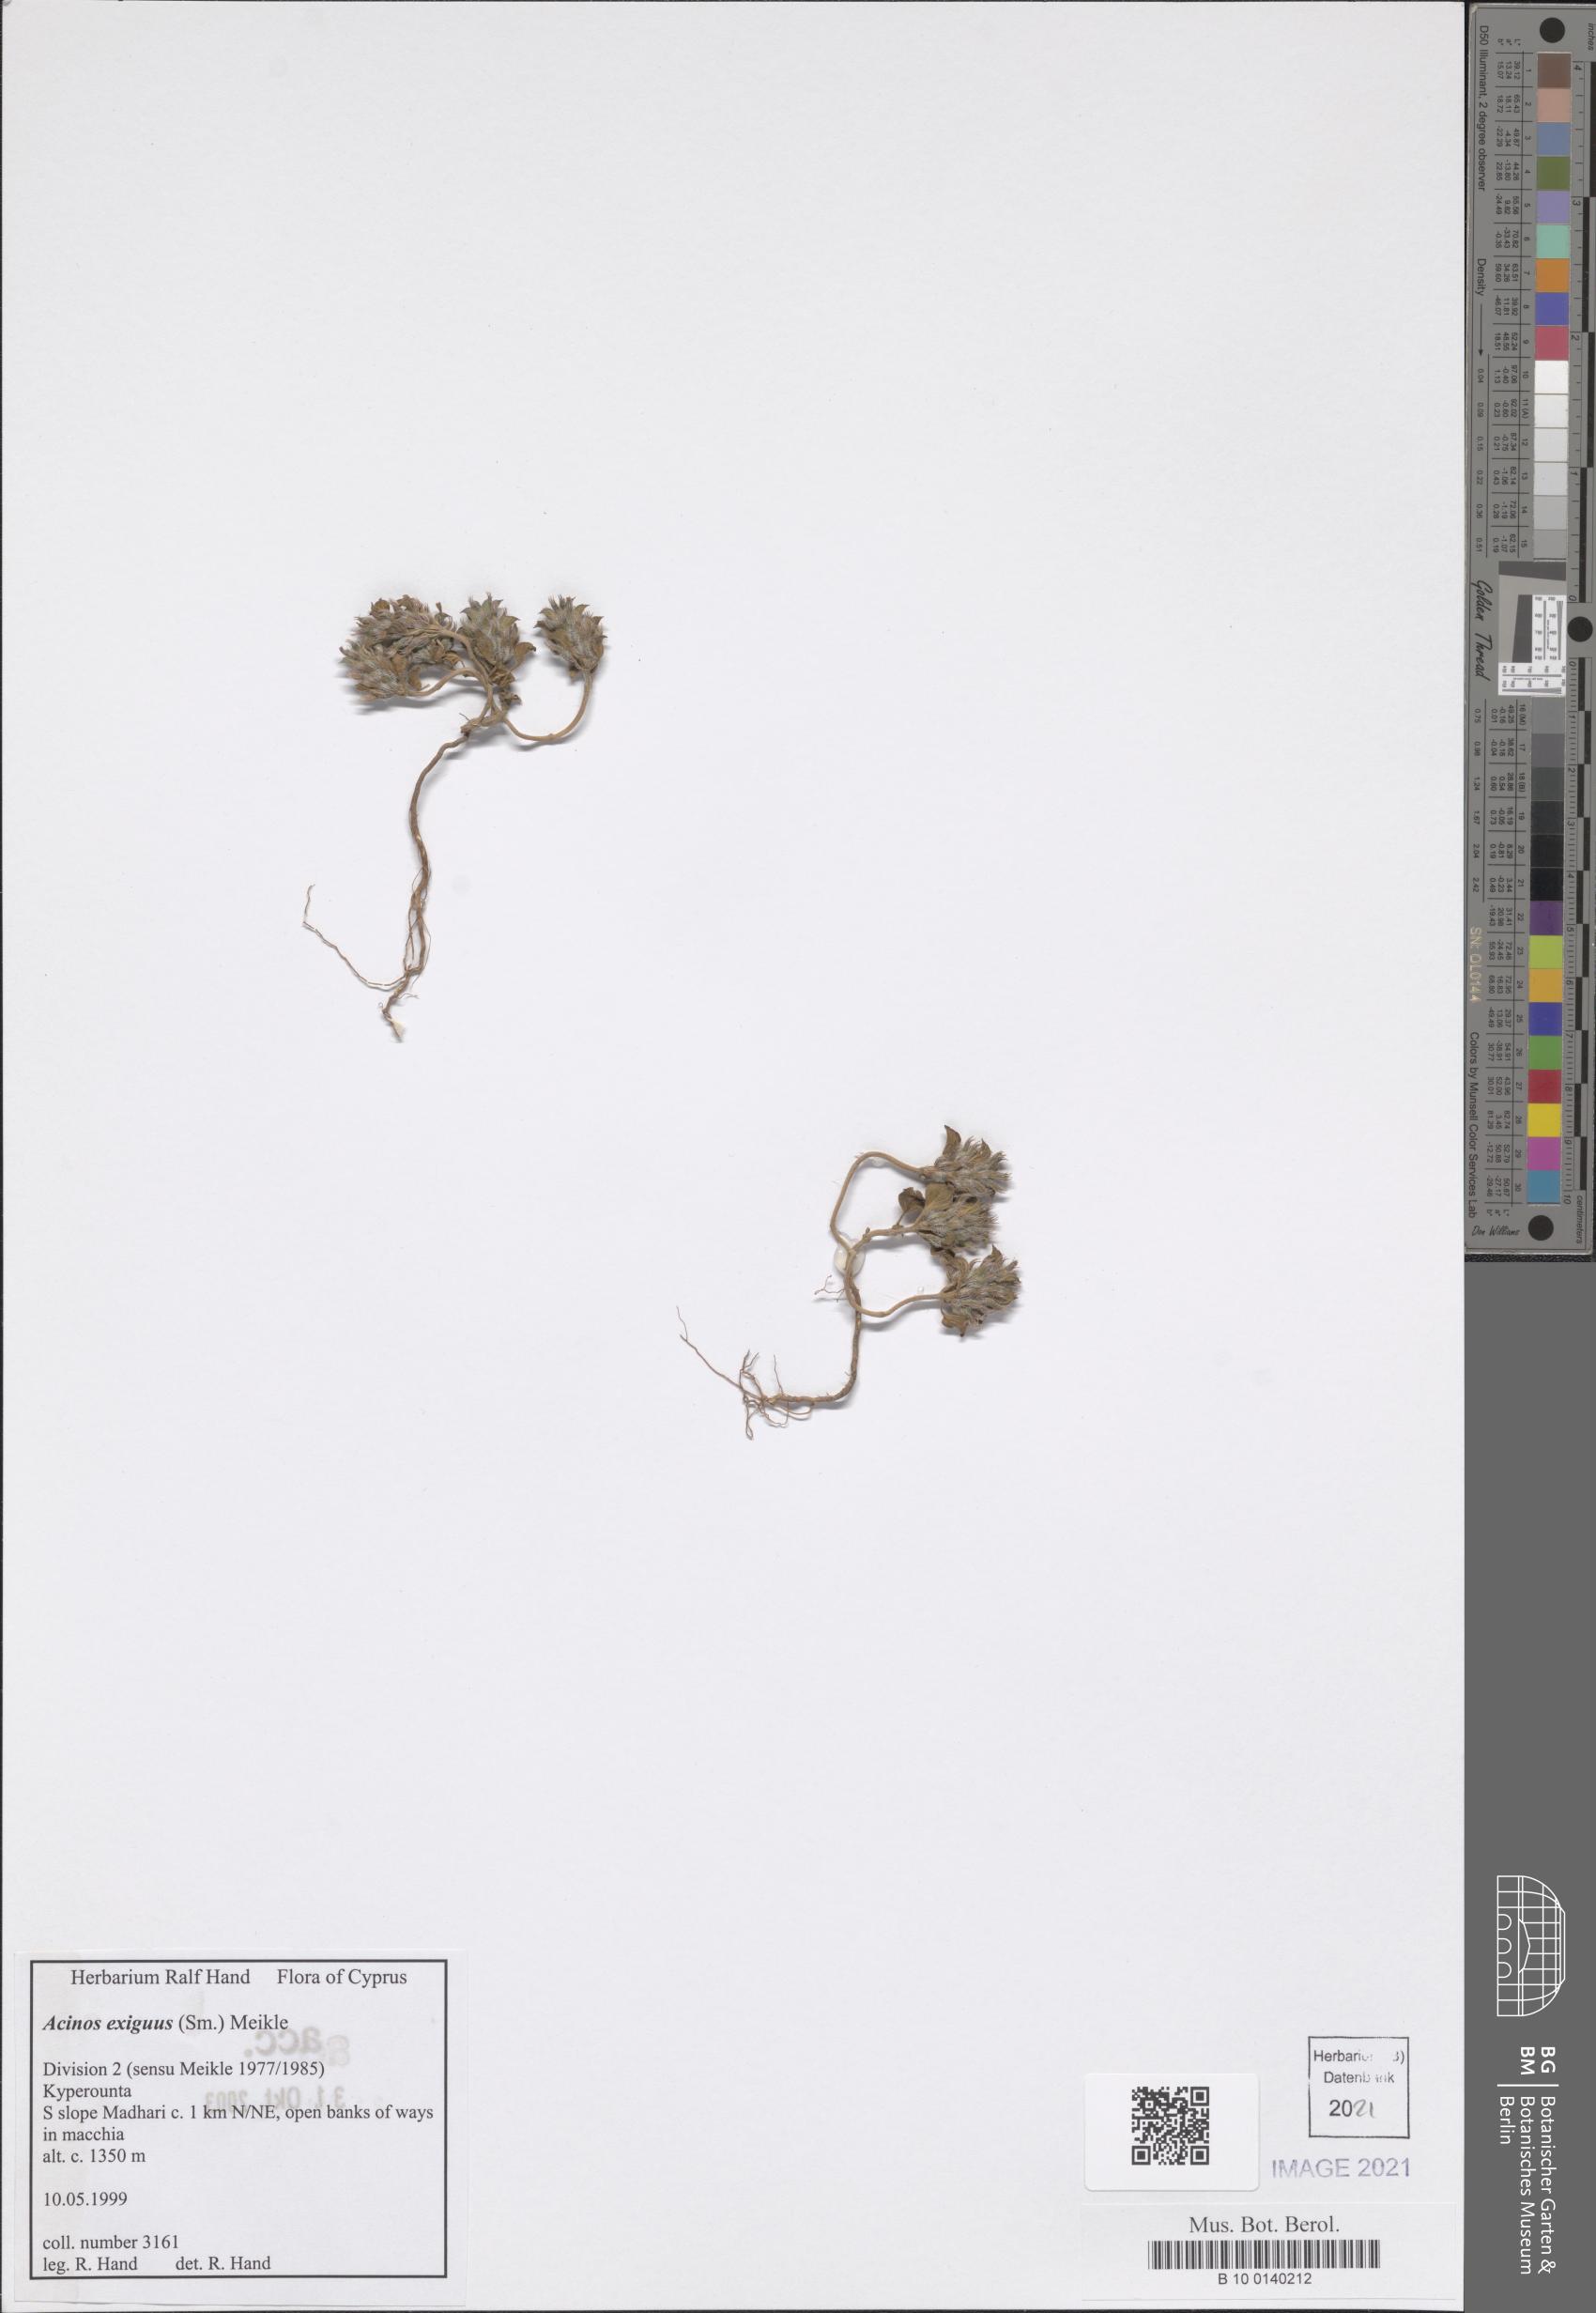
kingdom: Plantae
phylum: Tracheophyta
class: Magnoliopsida
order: Lamiales
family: Lamiaceae
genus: Clinopodium
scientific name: Clinopodium graveolens
